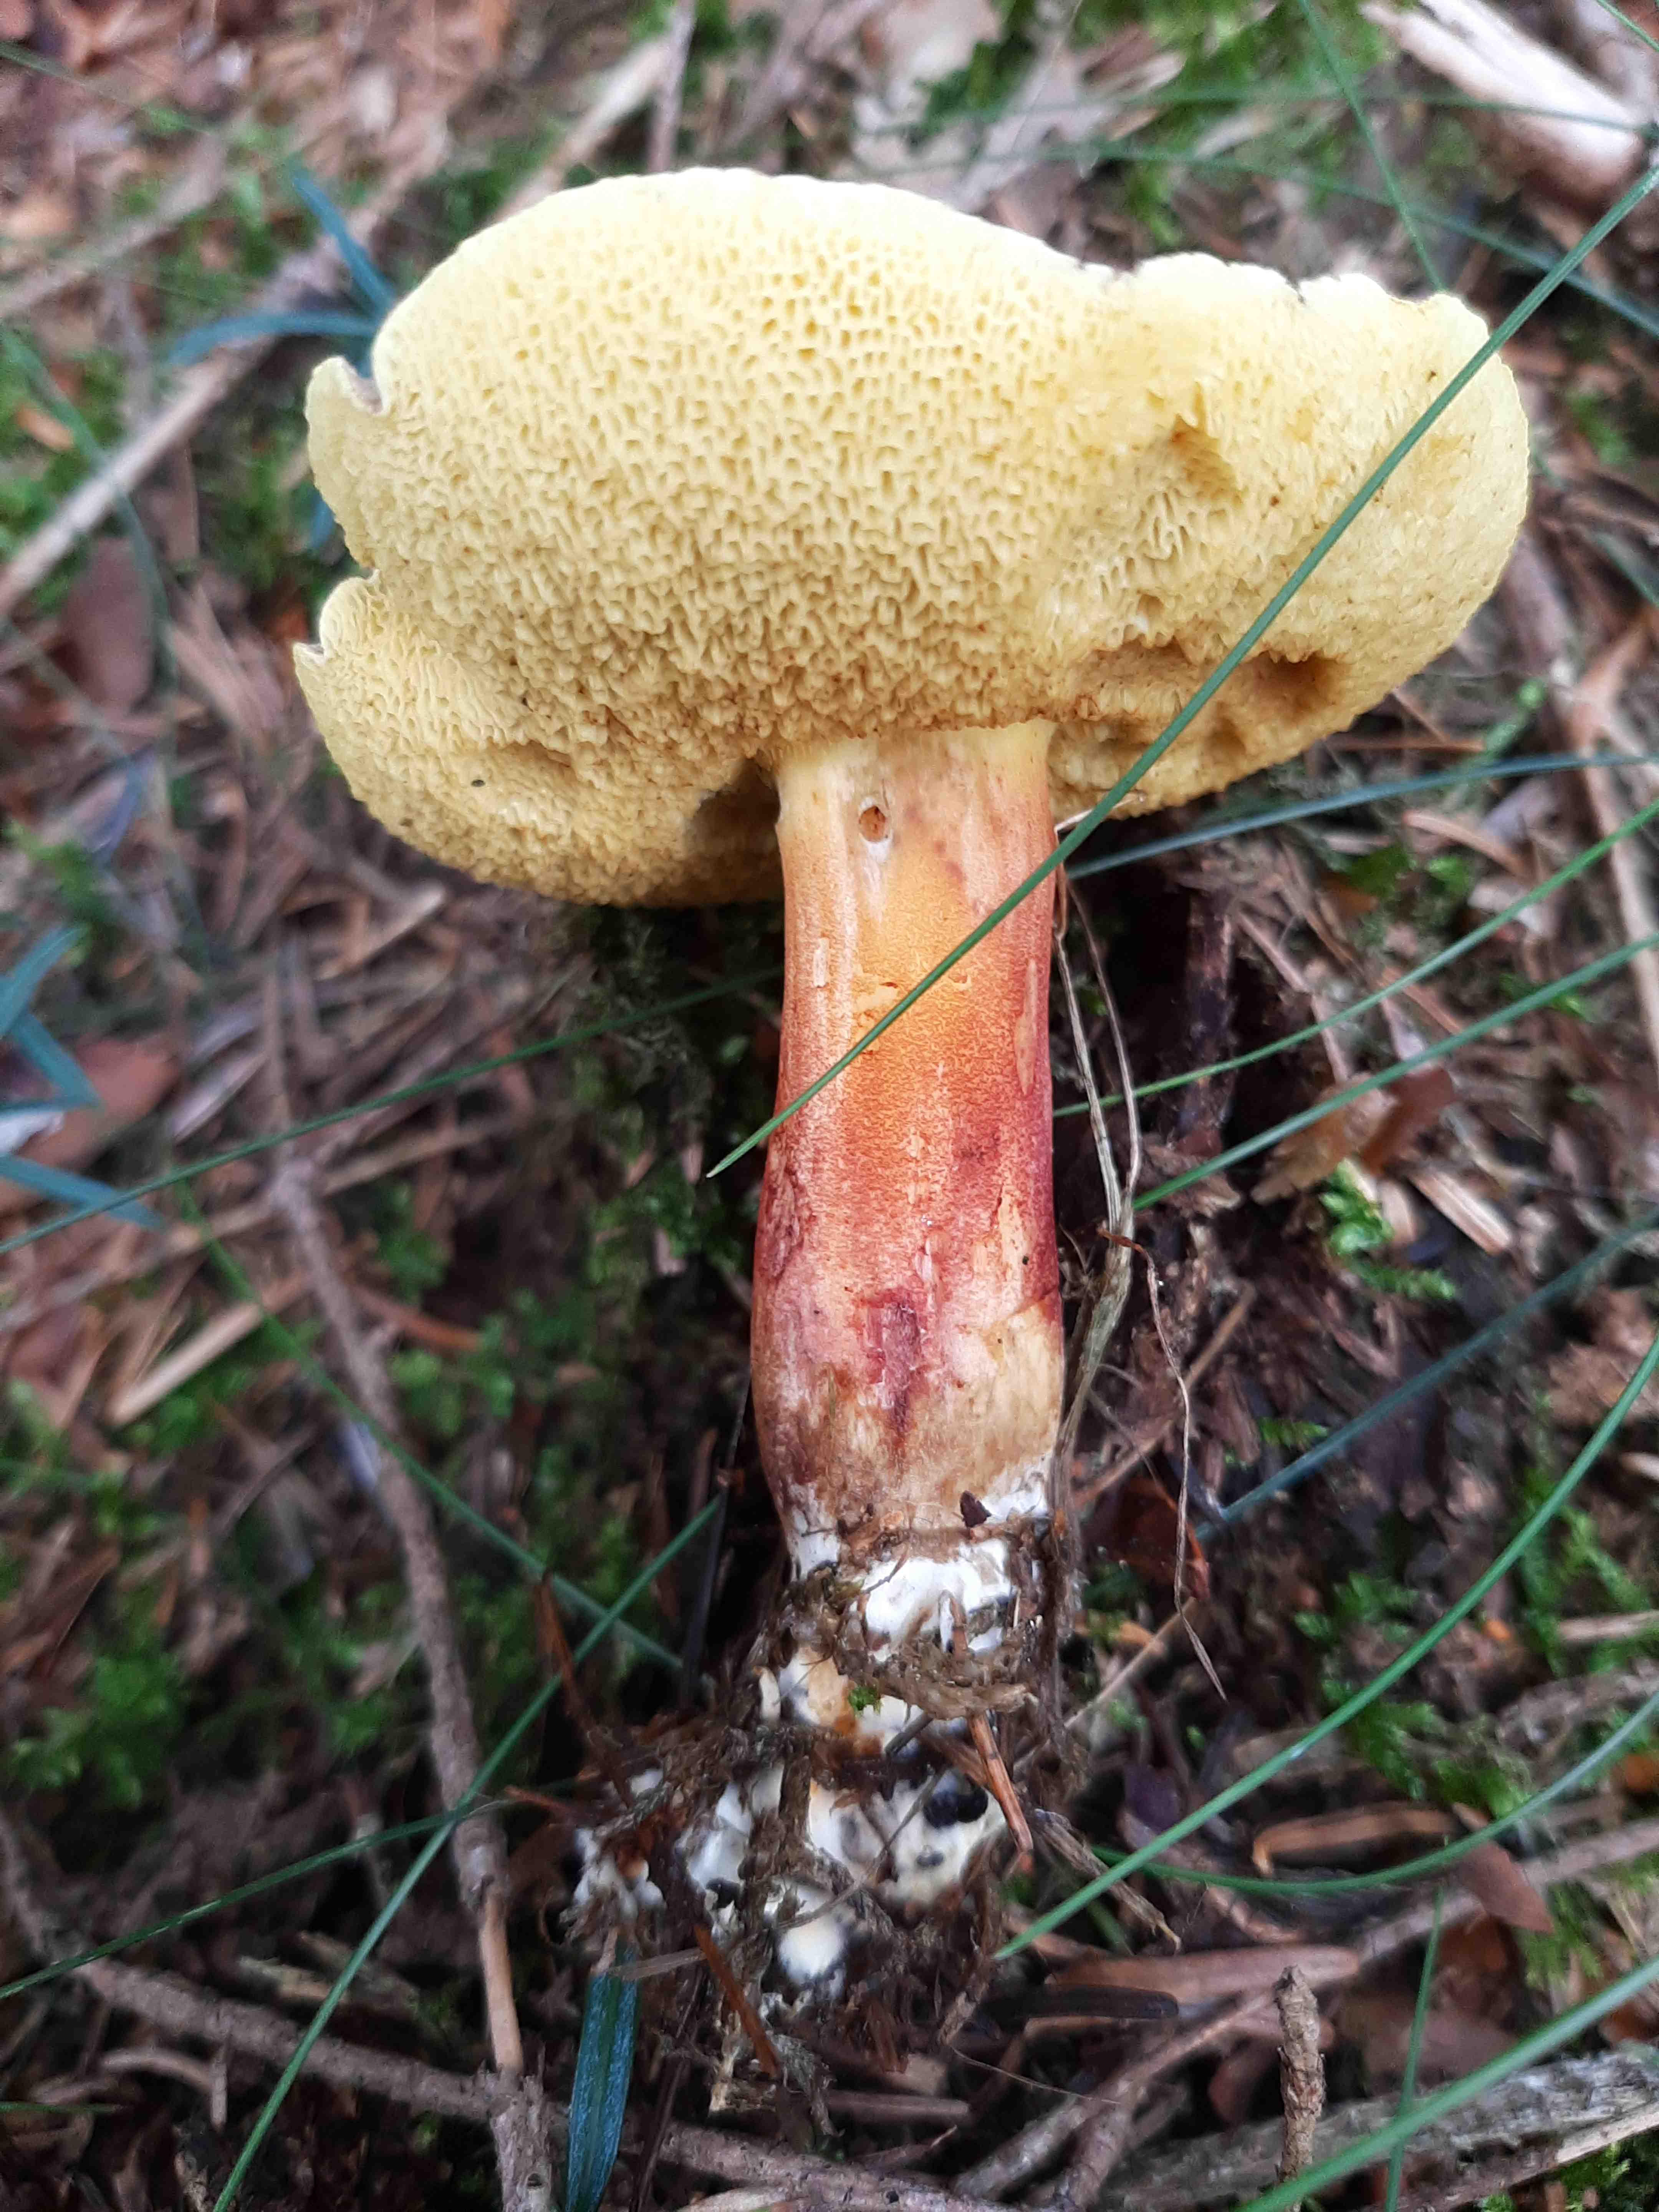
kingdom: Fungi
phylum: Basidiomycota
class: Agaricomycetes
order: Boletales
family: Boletaceae
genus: Xerocomellus
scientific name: Xerocomellus chrysenteron
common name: rødsprukken rørhat
